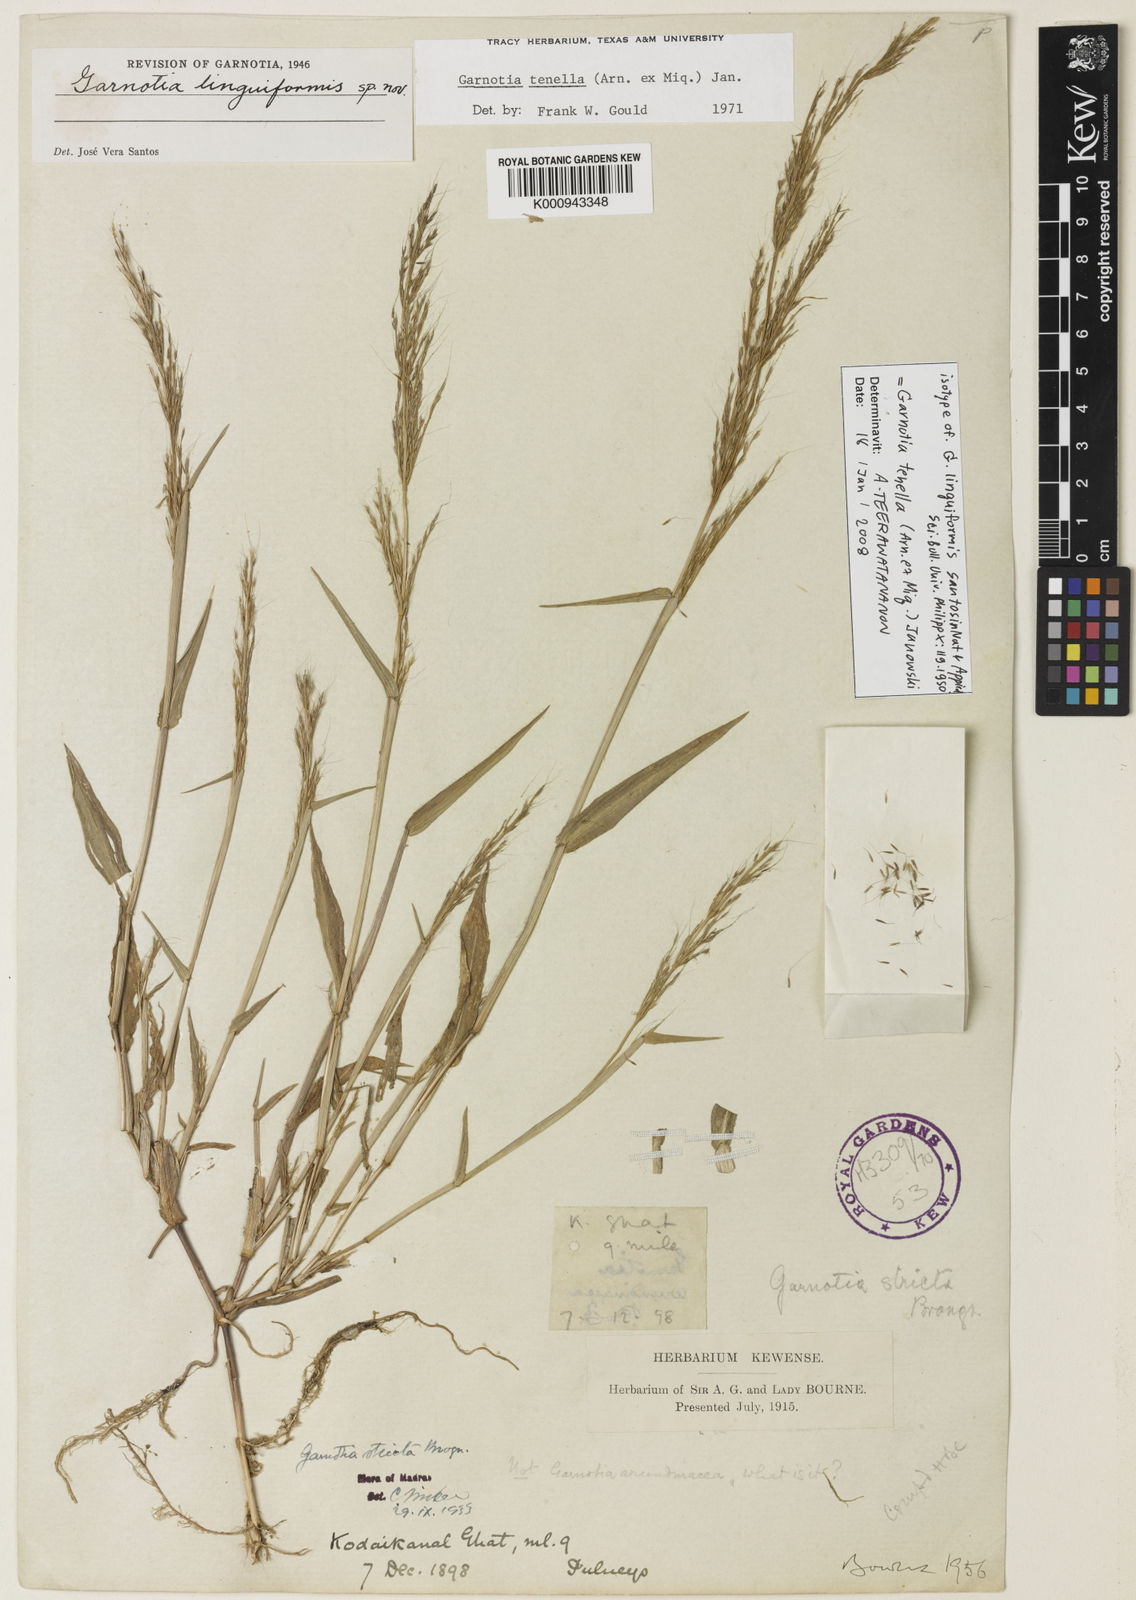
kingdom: Plantae
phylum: Tracheophyta
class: Liliopsida
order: Poales
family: Poaceae
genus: Garnotia
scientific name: Garnotia tenella
